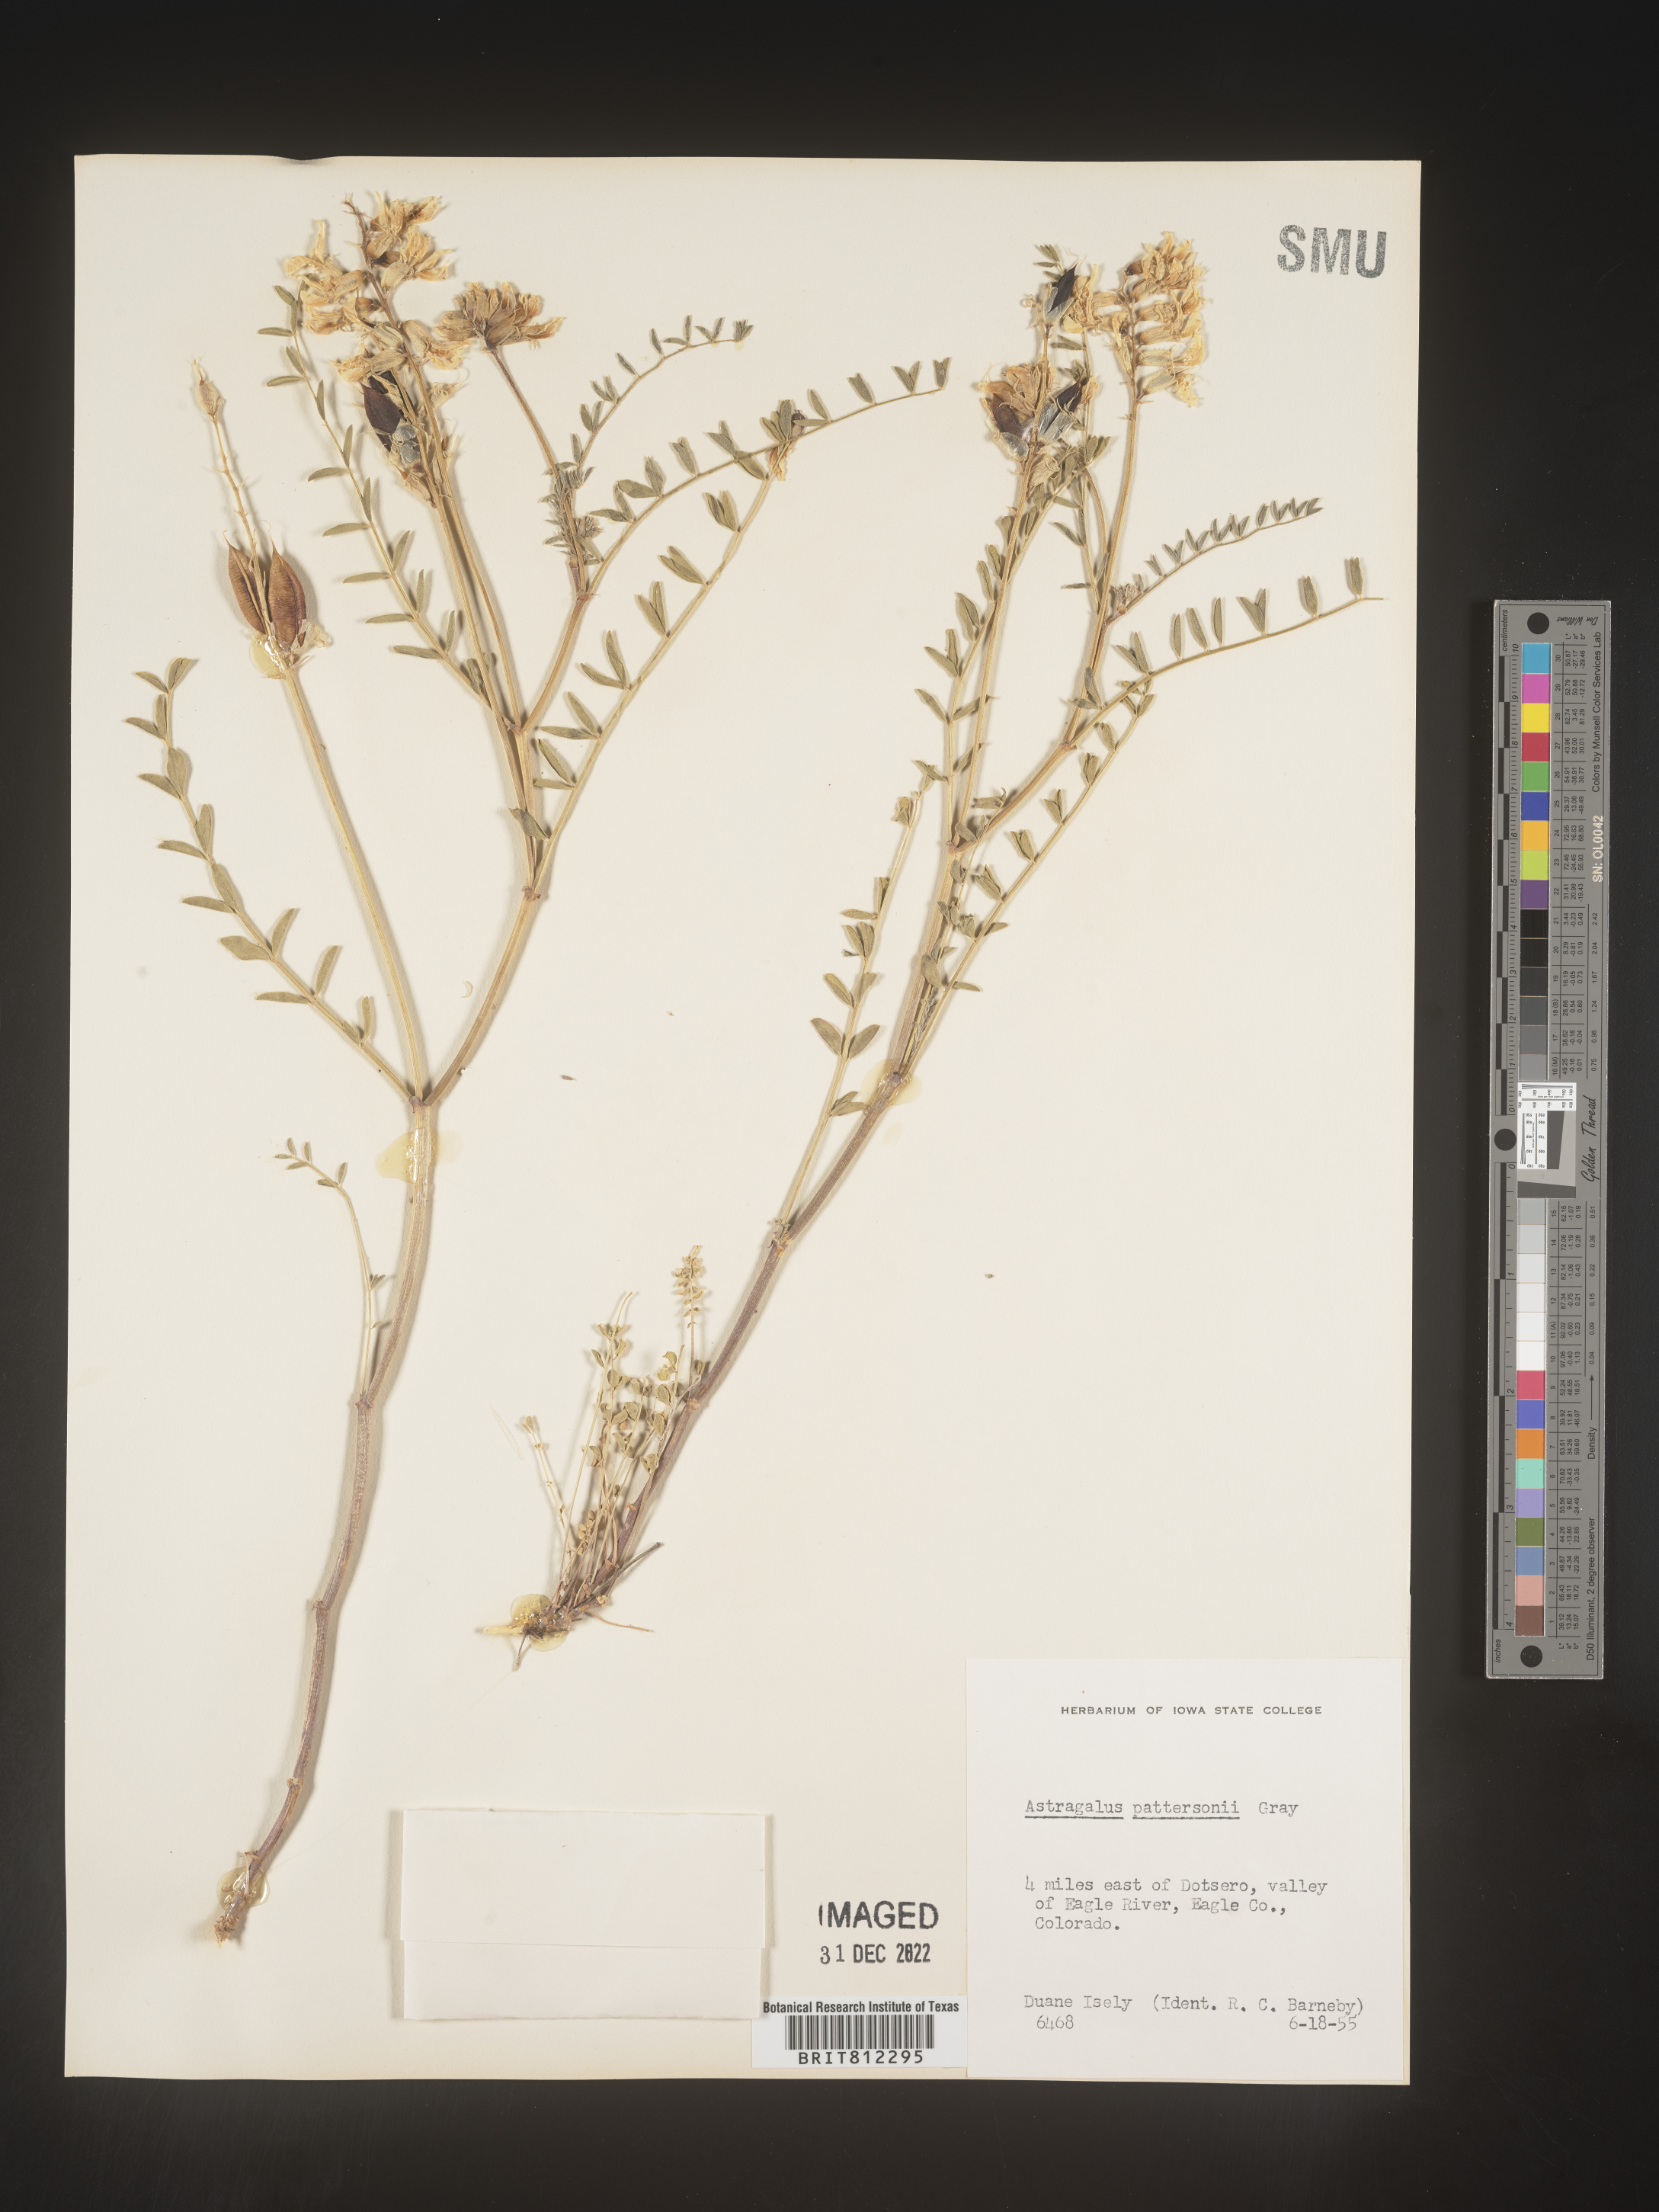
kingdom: Plantae
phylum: Tracheophyta
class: Magnoliopsida
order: Fabales
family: Fabaceae
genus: Astragalus
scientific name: Astragalus
